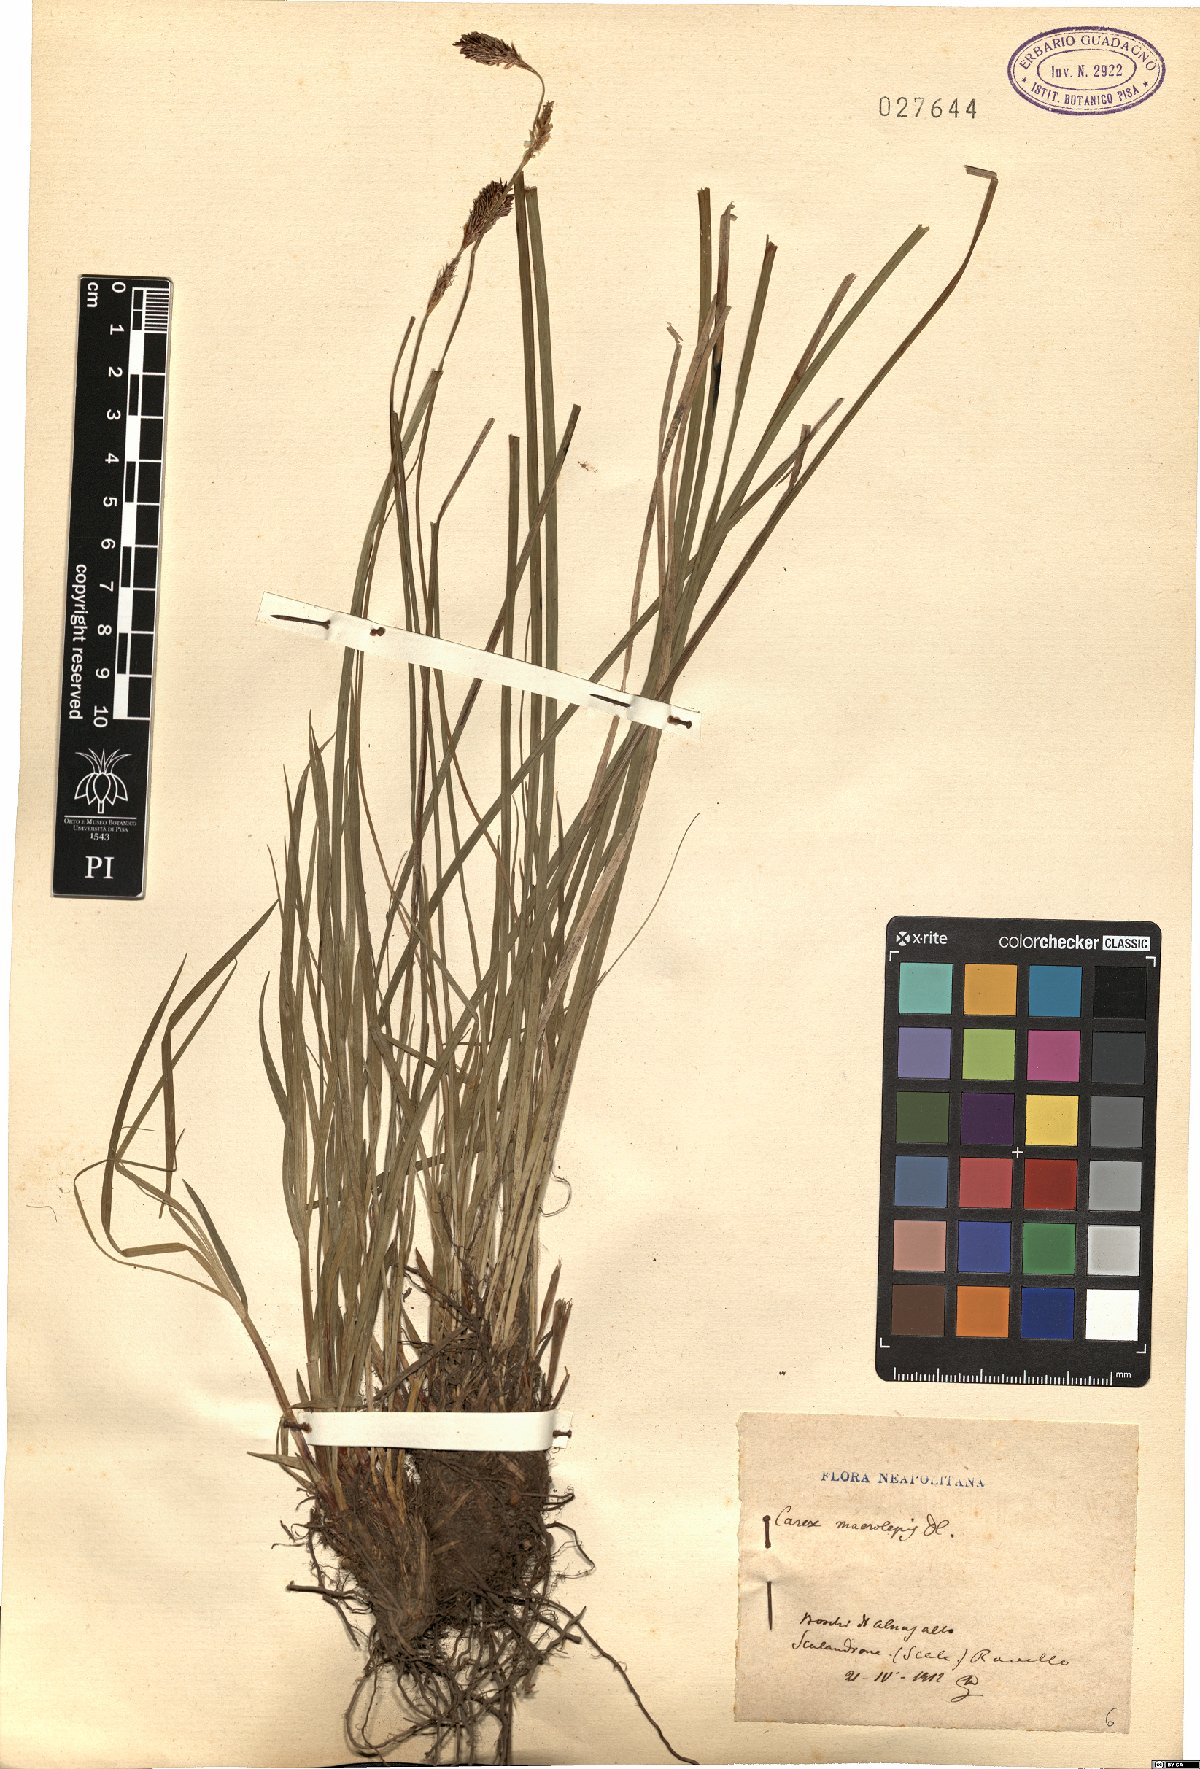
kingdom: Plantae
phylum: Tracheophyta
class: Liliopsida
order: Poales
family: Cyperaceae
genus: Carex
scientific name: Carex macrolepis
